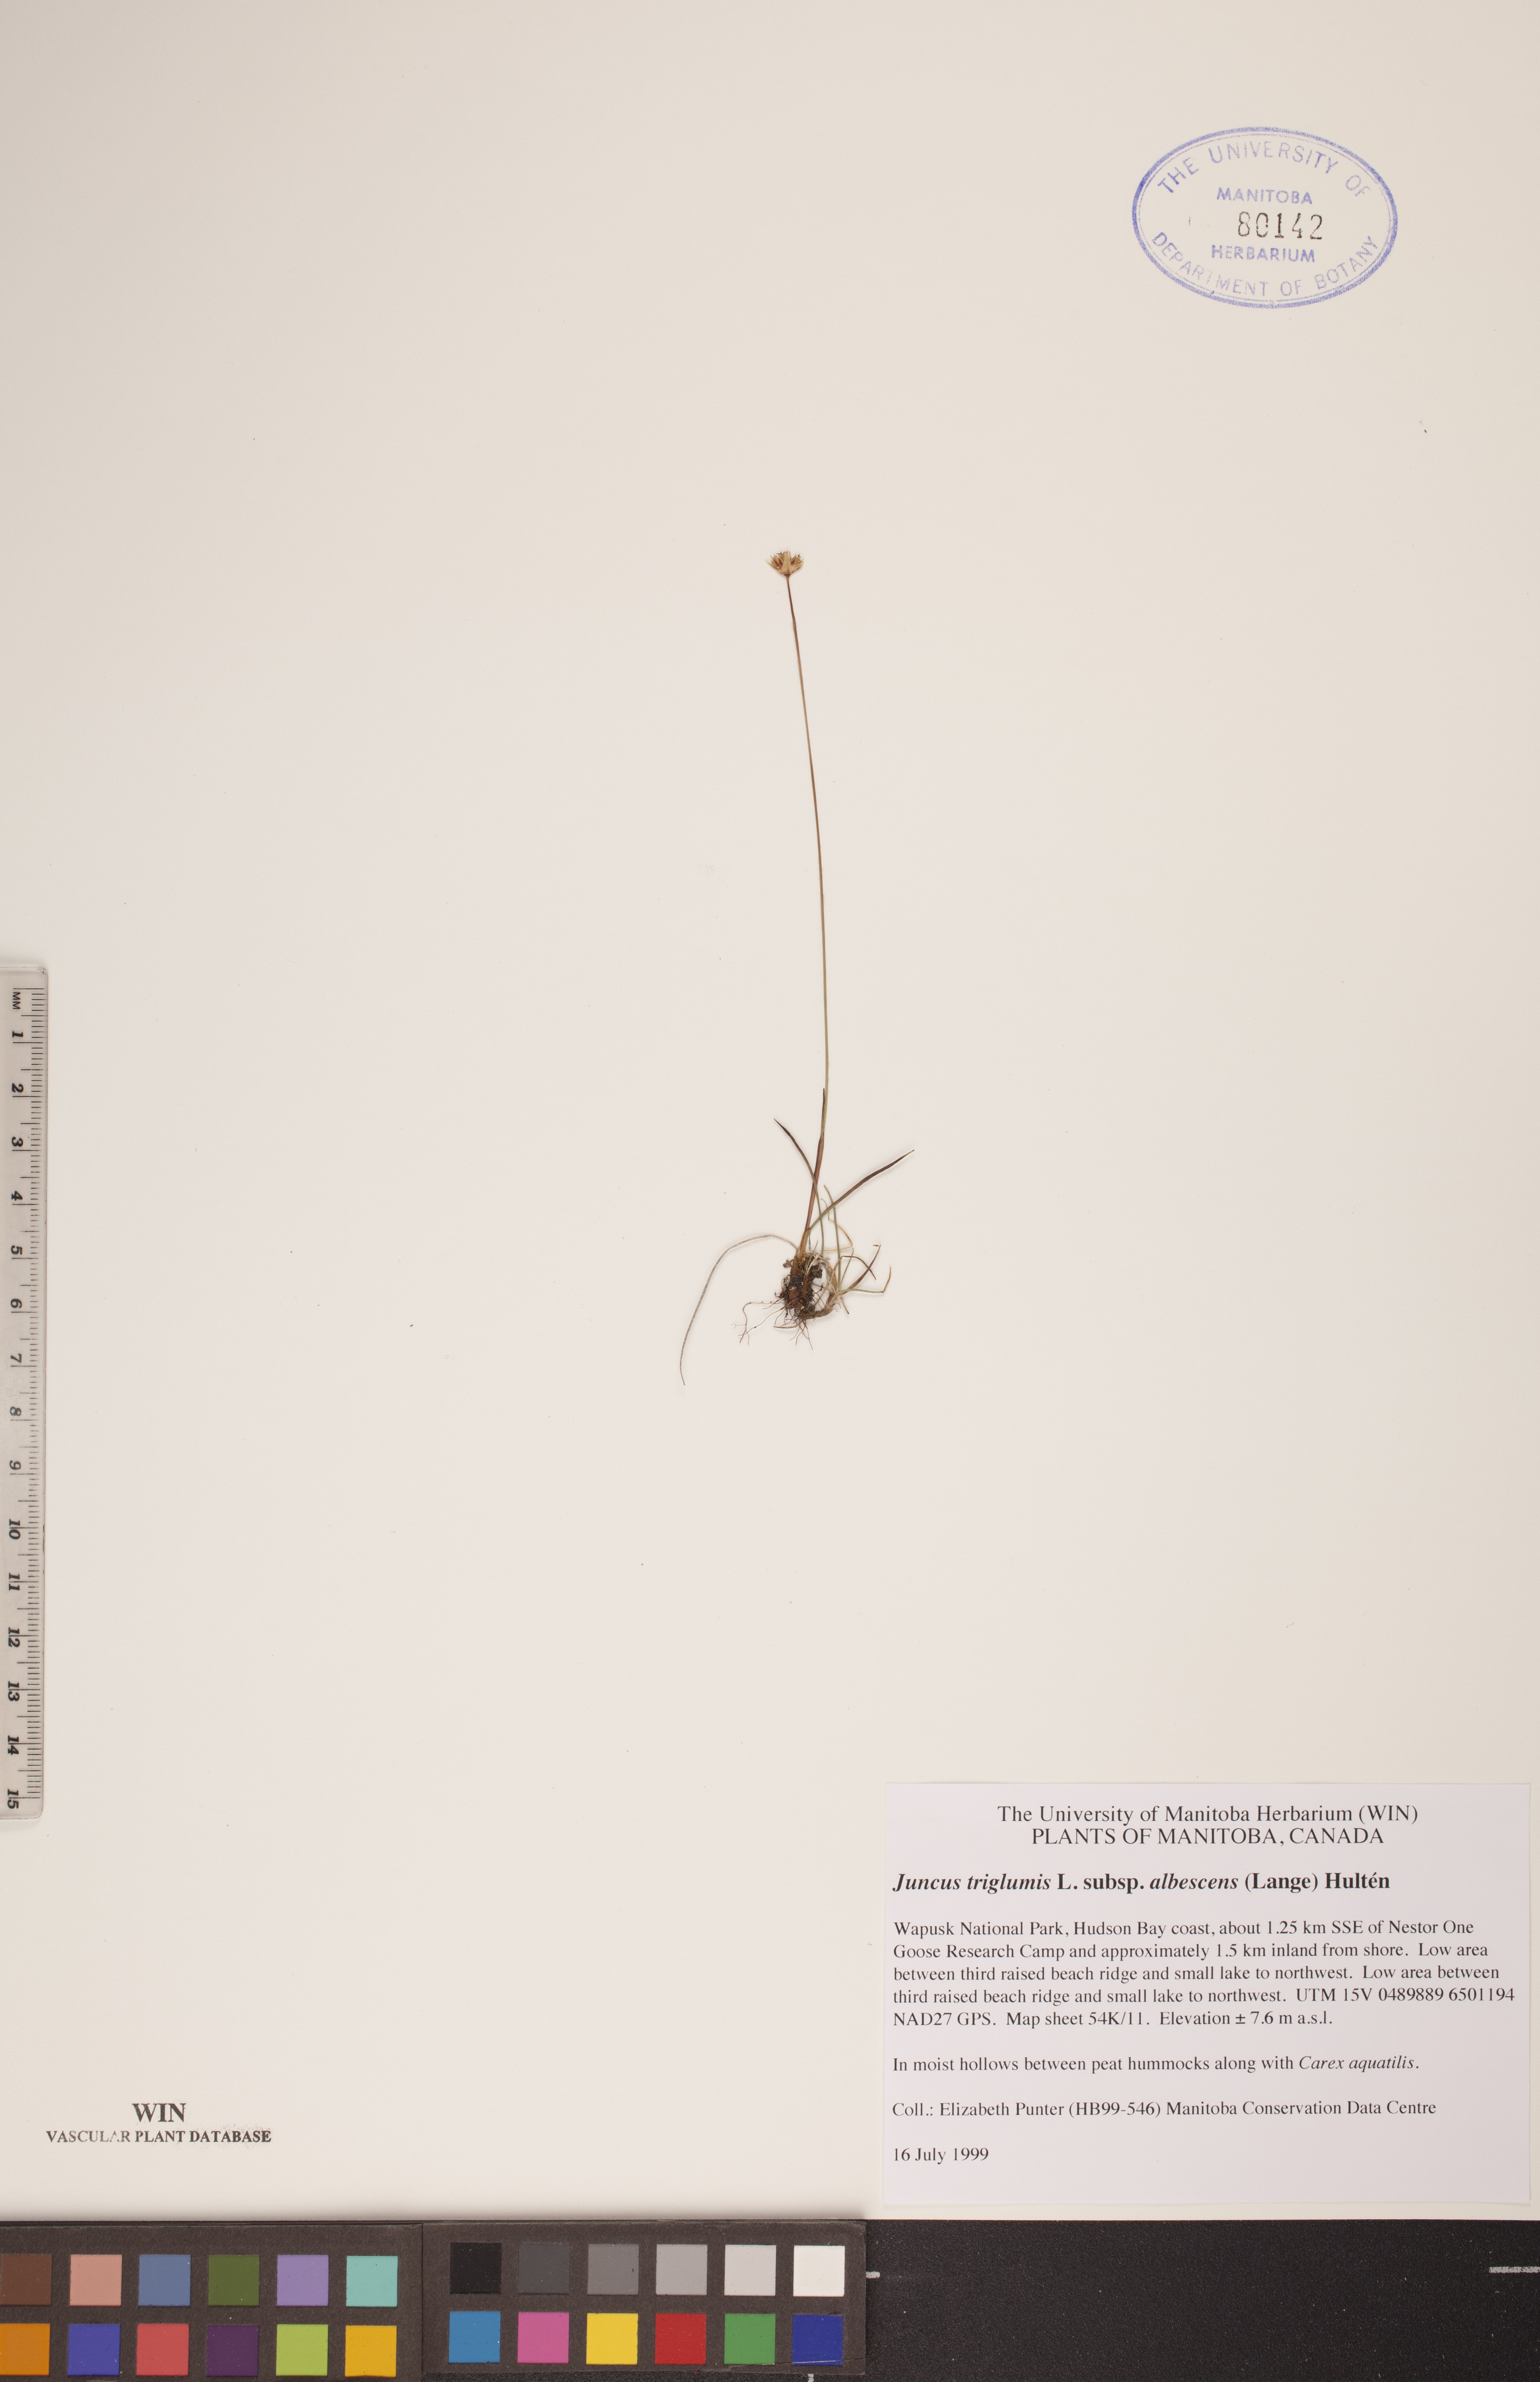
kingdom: Plantae
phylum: Tracheophyta
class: Liliopsida
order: Poales
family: Juncaceae
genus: Juncus
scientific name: Juncus albescens
